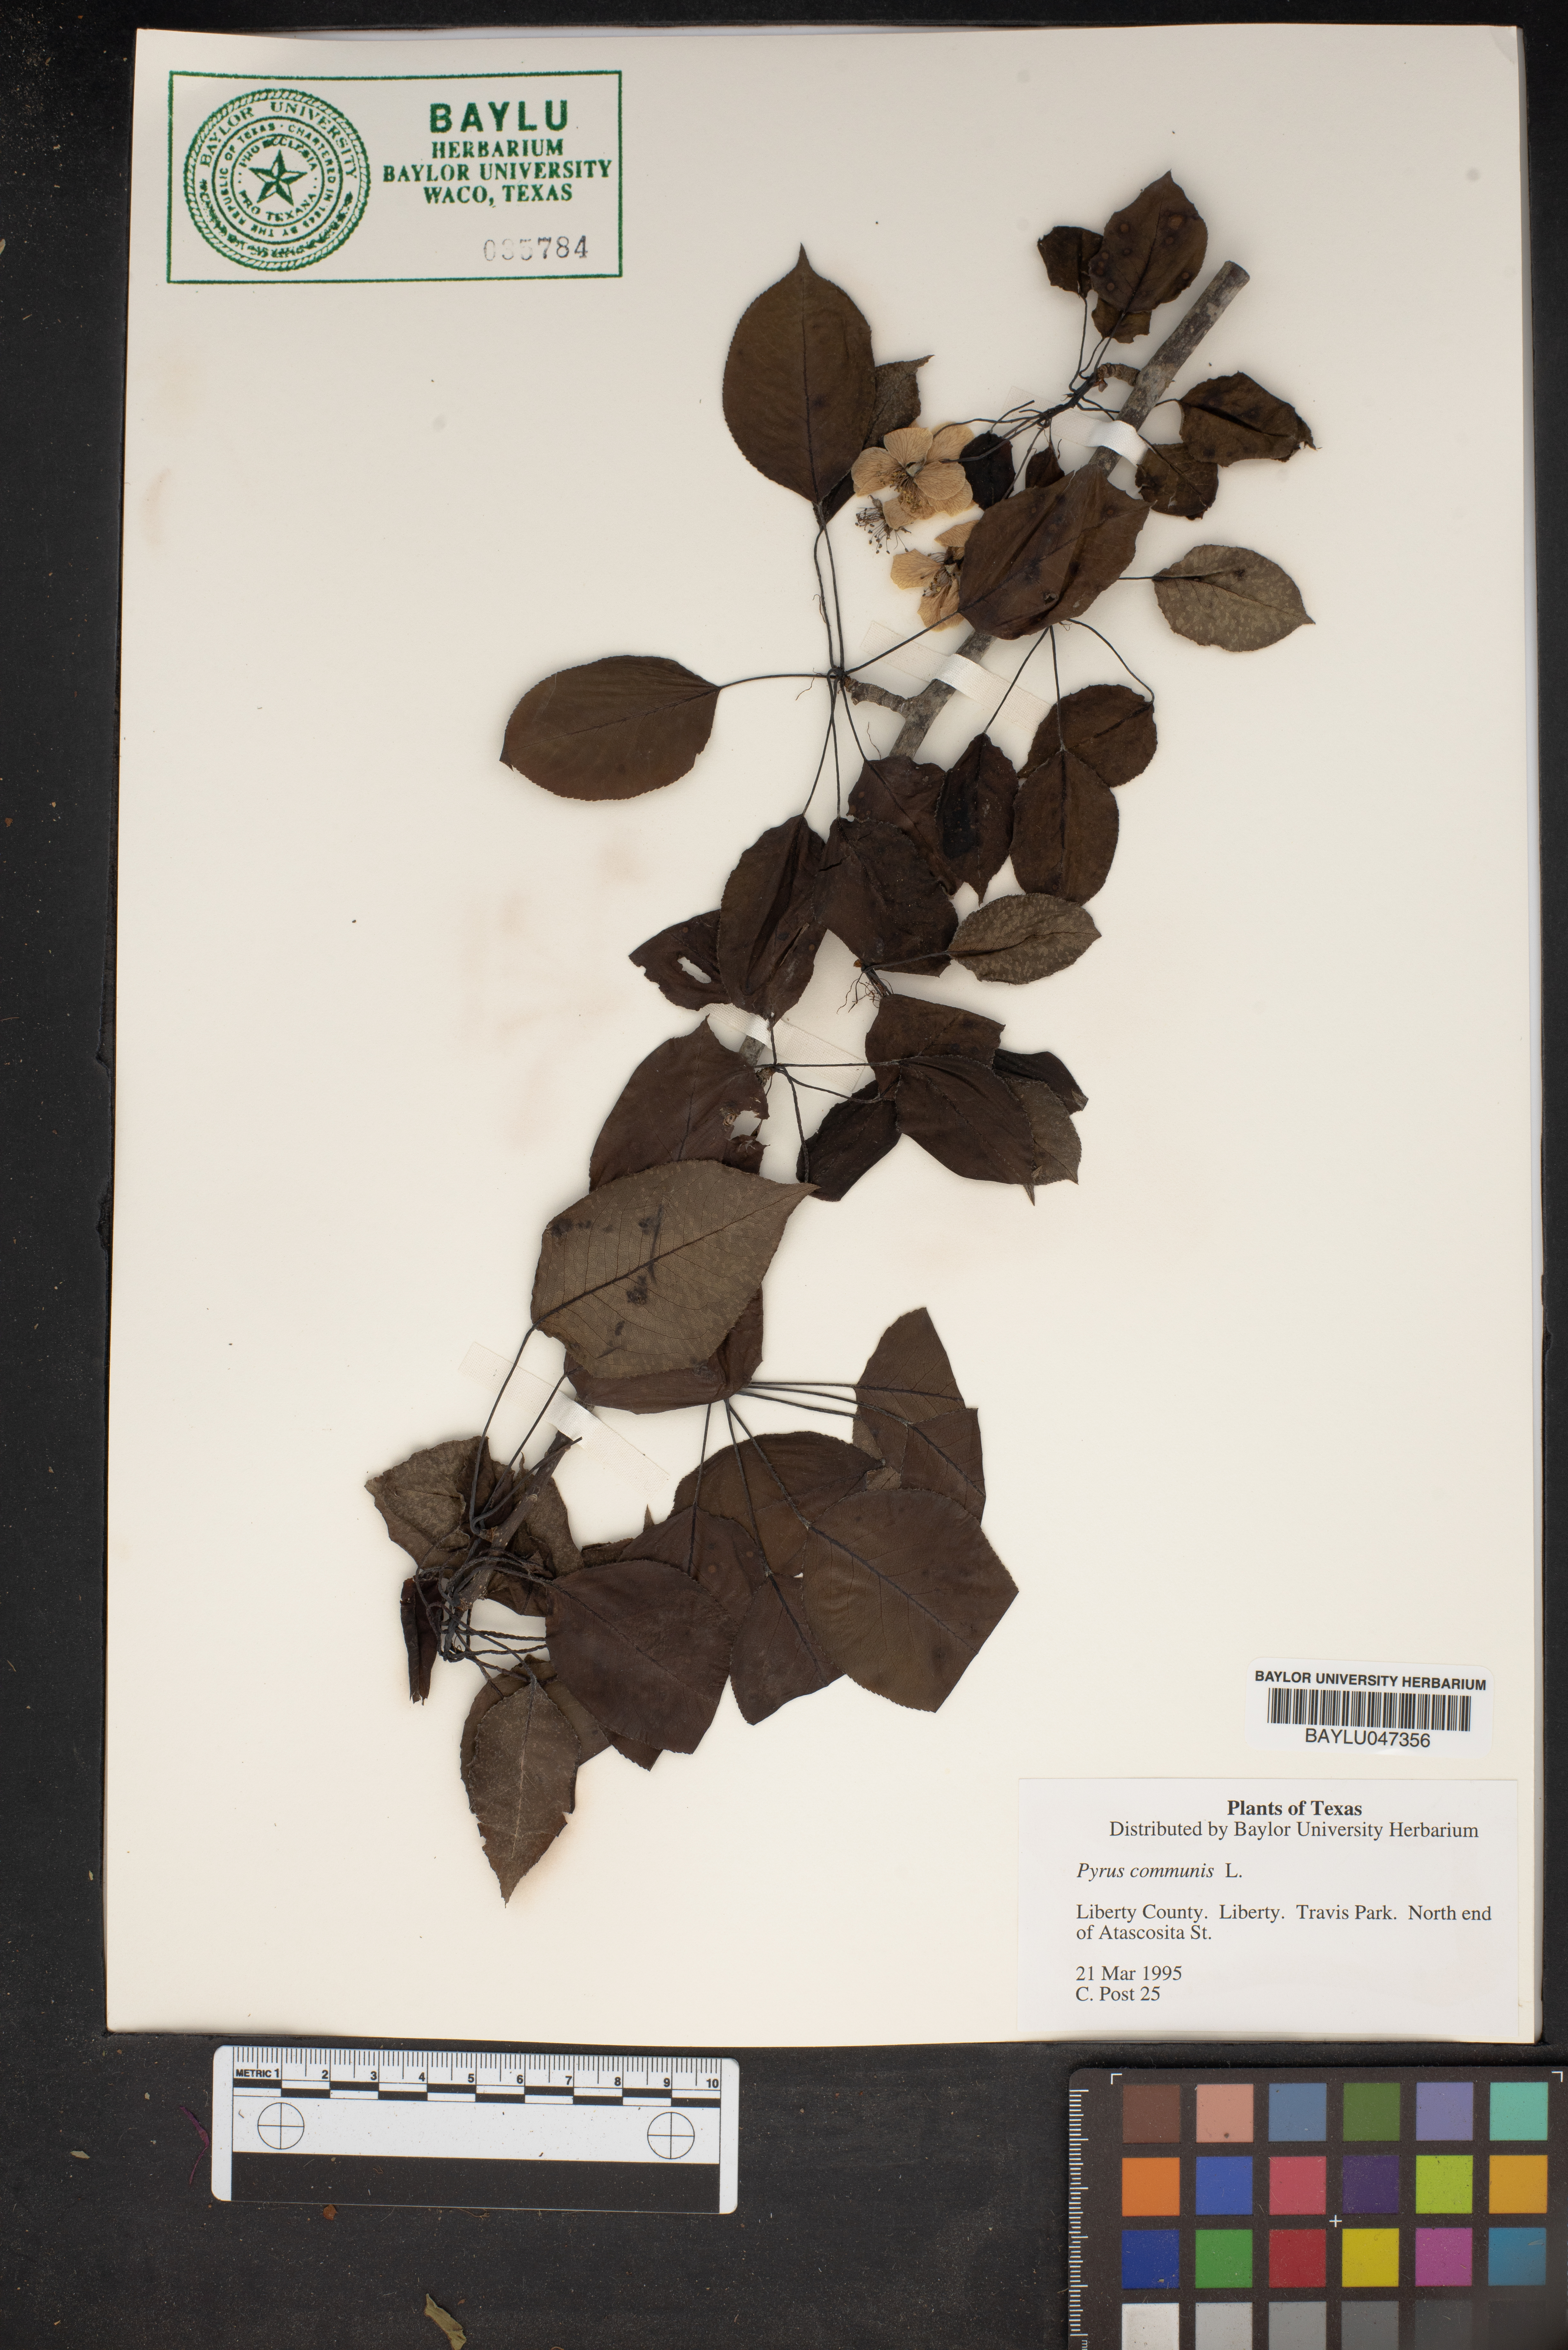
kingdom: Plantae
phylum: Tracheophyta
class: Magnoliopsida
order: Rosales
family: Rosaceae
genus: Pyrus
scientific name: Pyrus communis
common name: Pear
